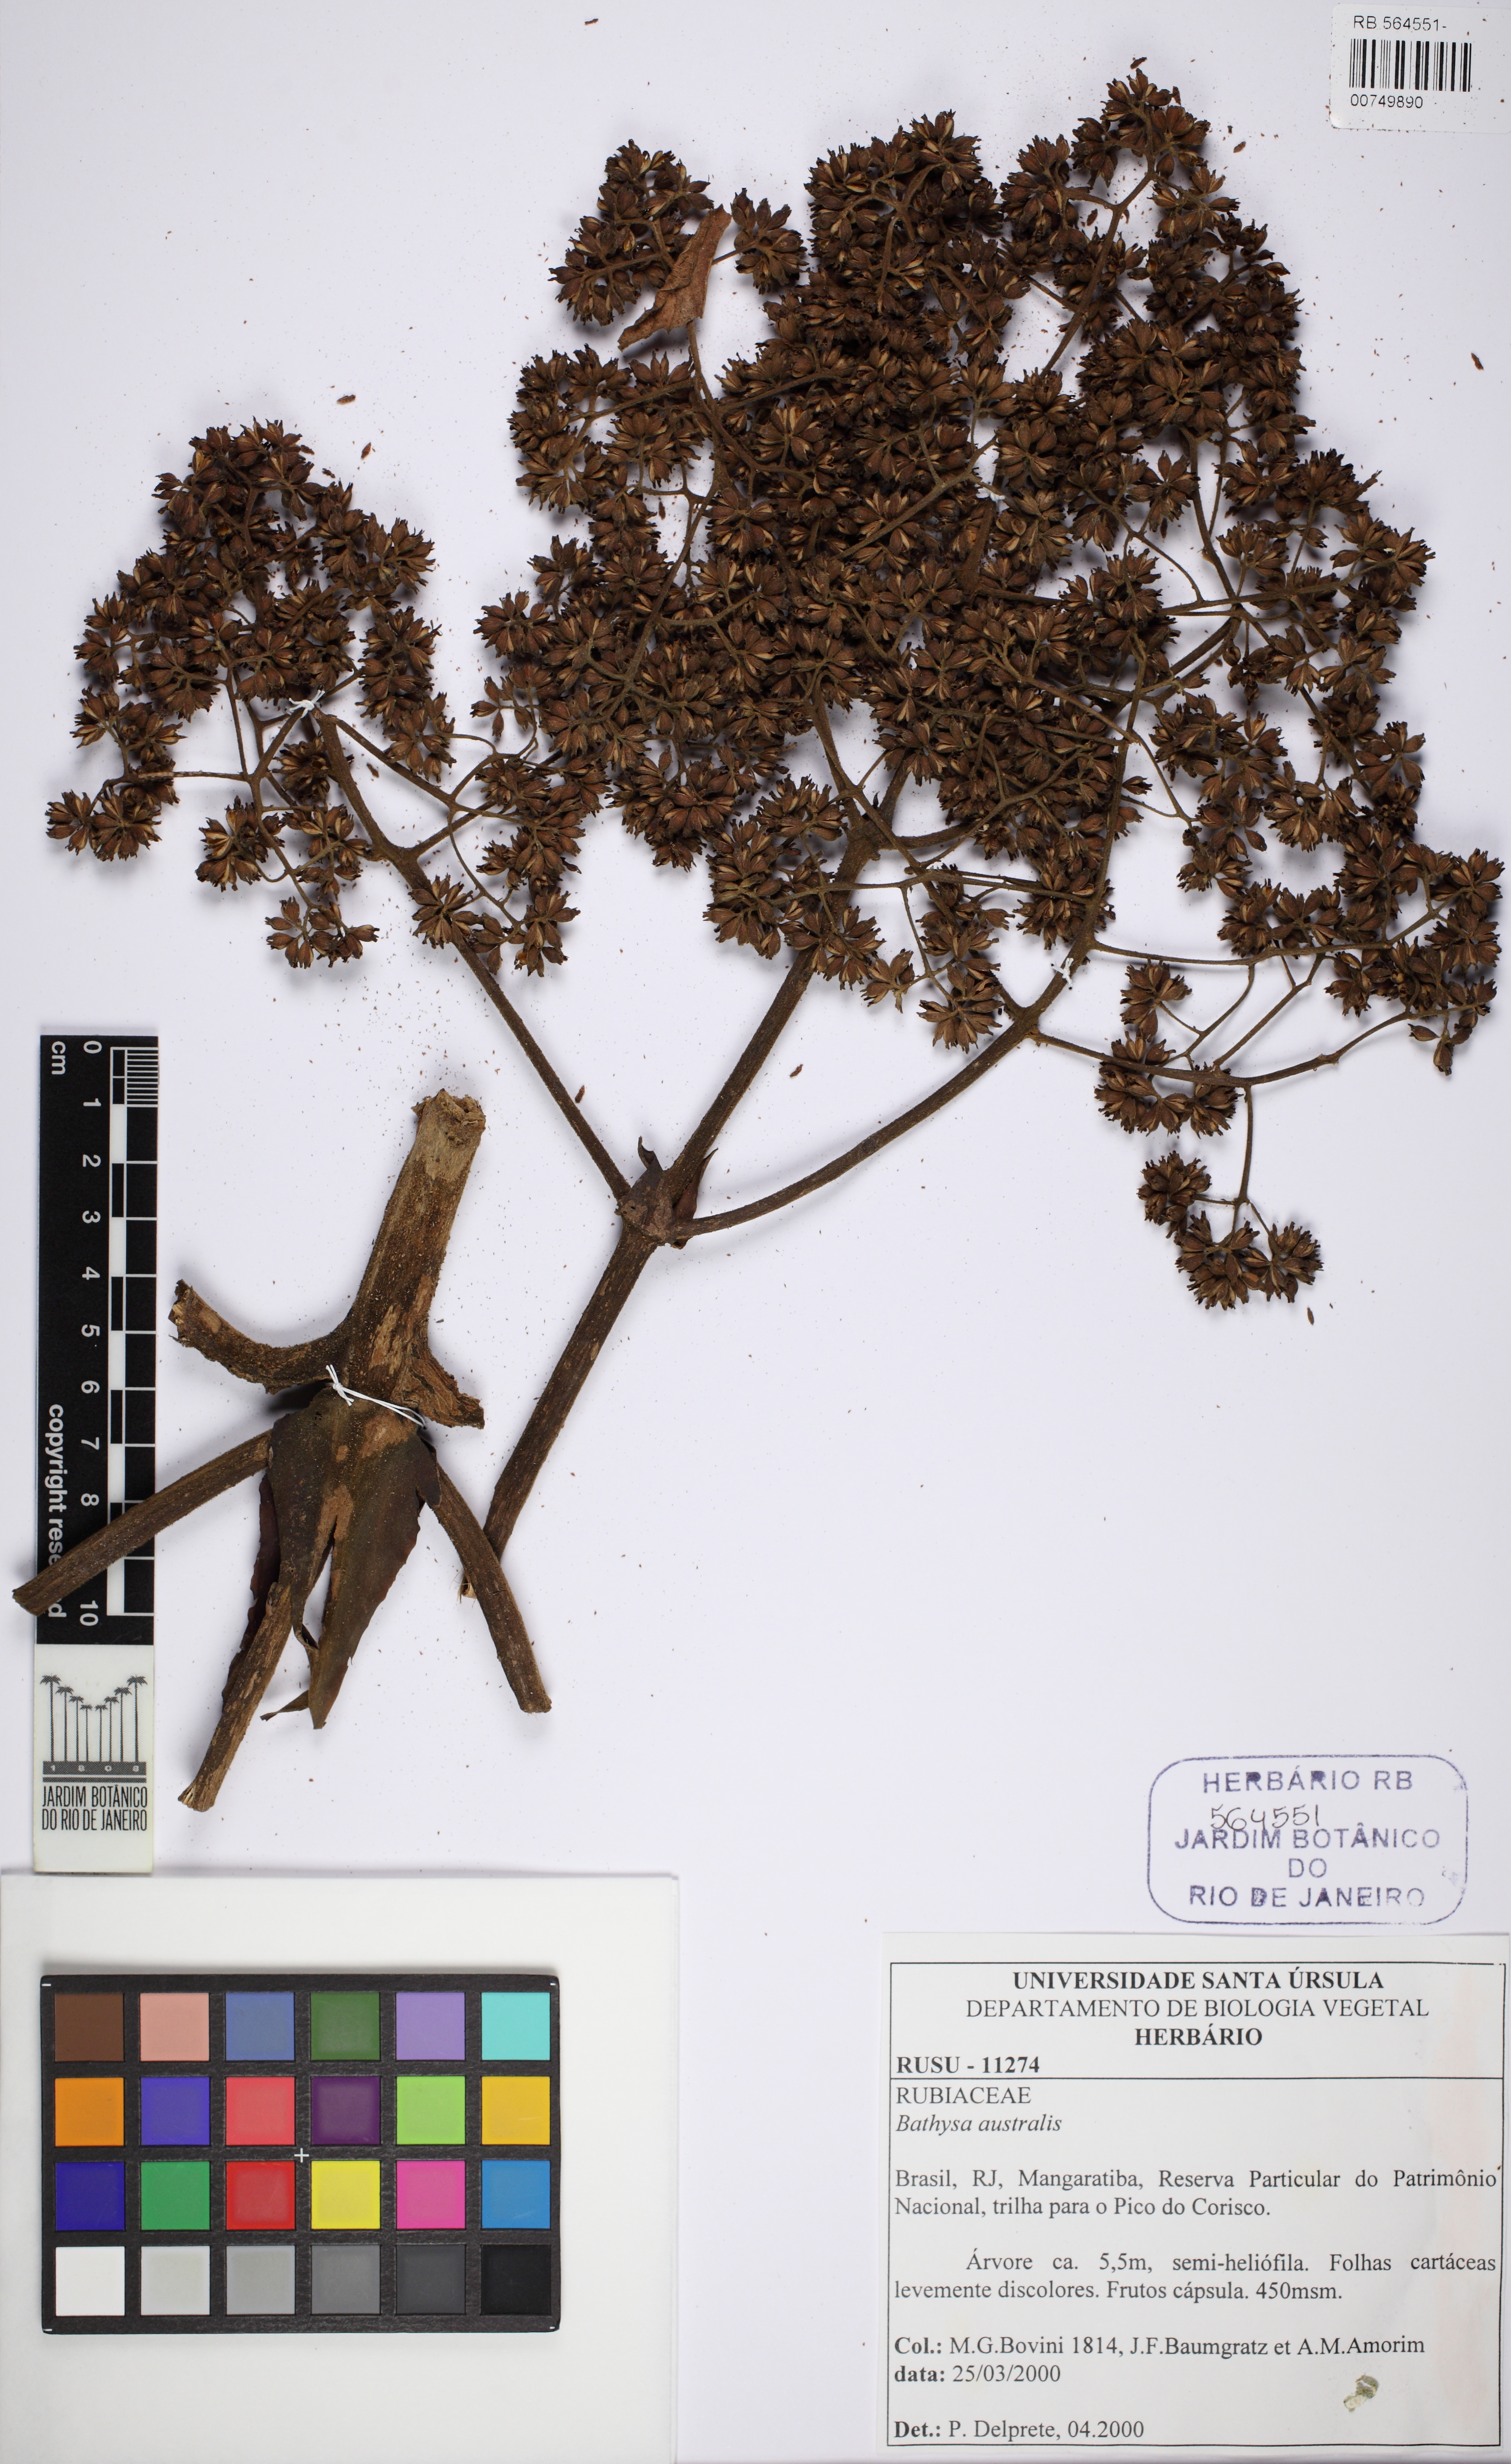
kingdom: Plantae
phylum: Tracheophyta
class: Magnoliopsida
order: Gentianales
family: Rubiaceae
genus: Bathysa
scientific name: Bathysa australis
